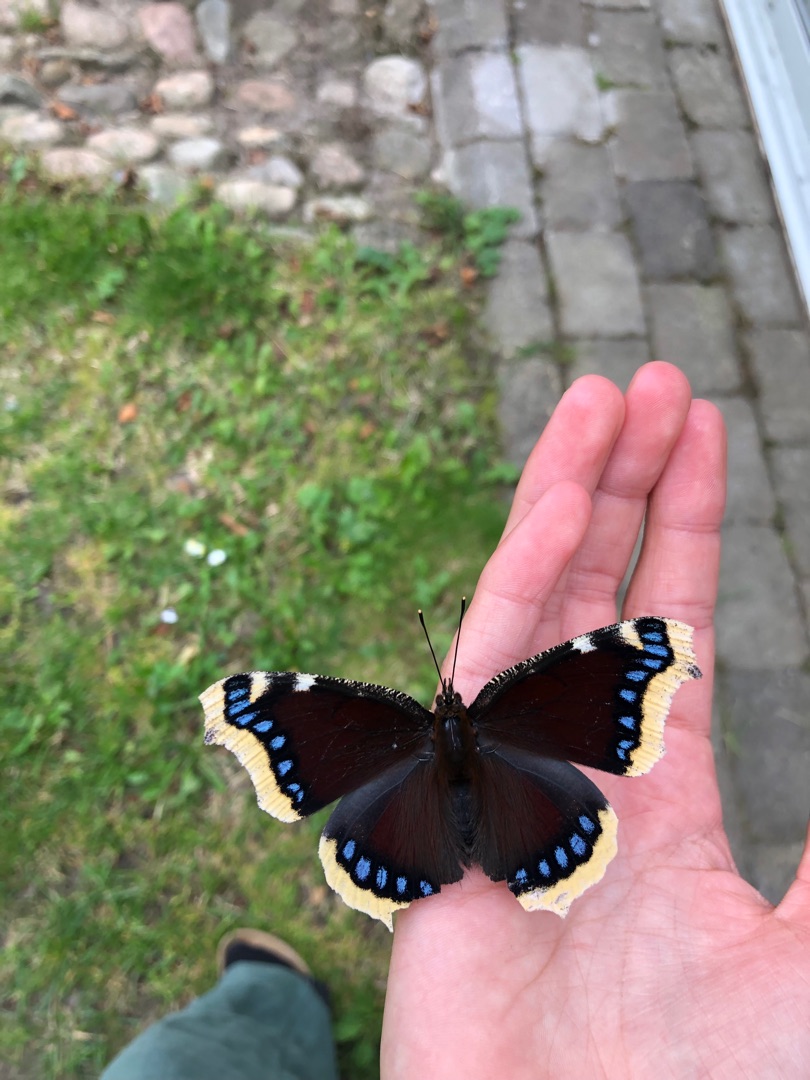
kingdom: Animalia
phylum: Arthropoda
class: Insecta
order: Lepidoptera
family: Nymphalidae
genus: Nymphalis
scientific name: Nymphalis antiopa
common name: Sørgekåbe
